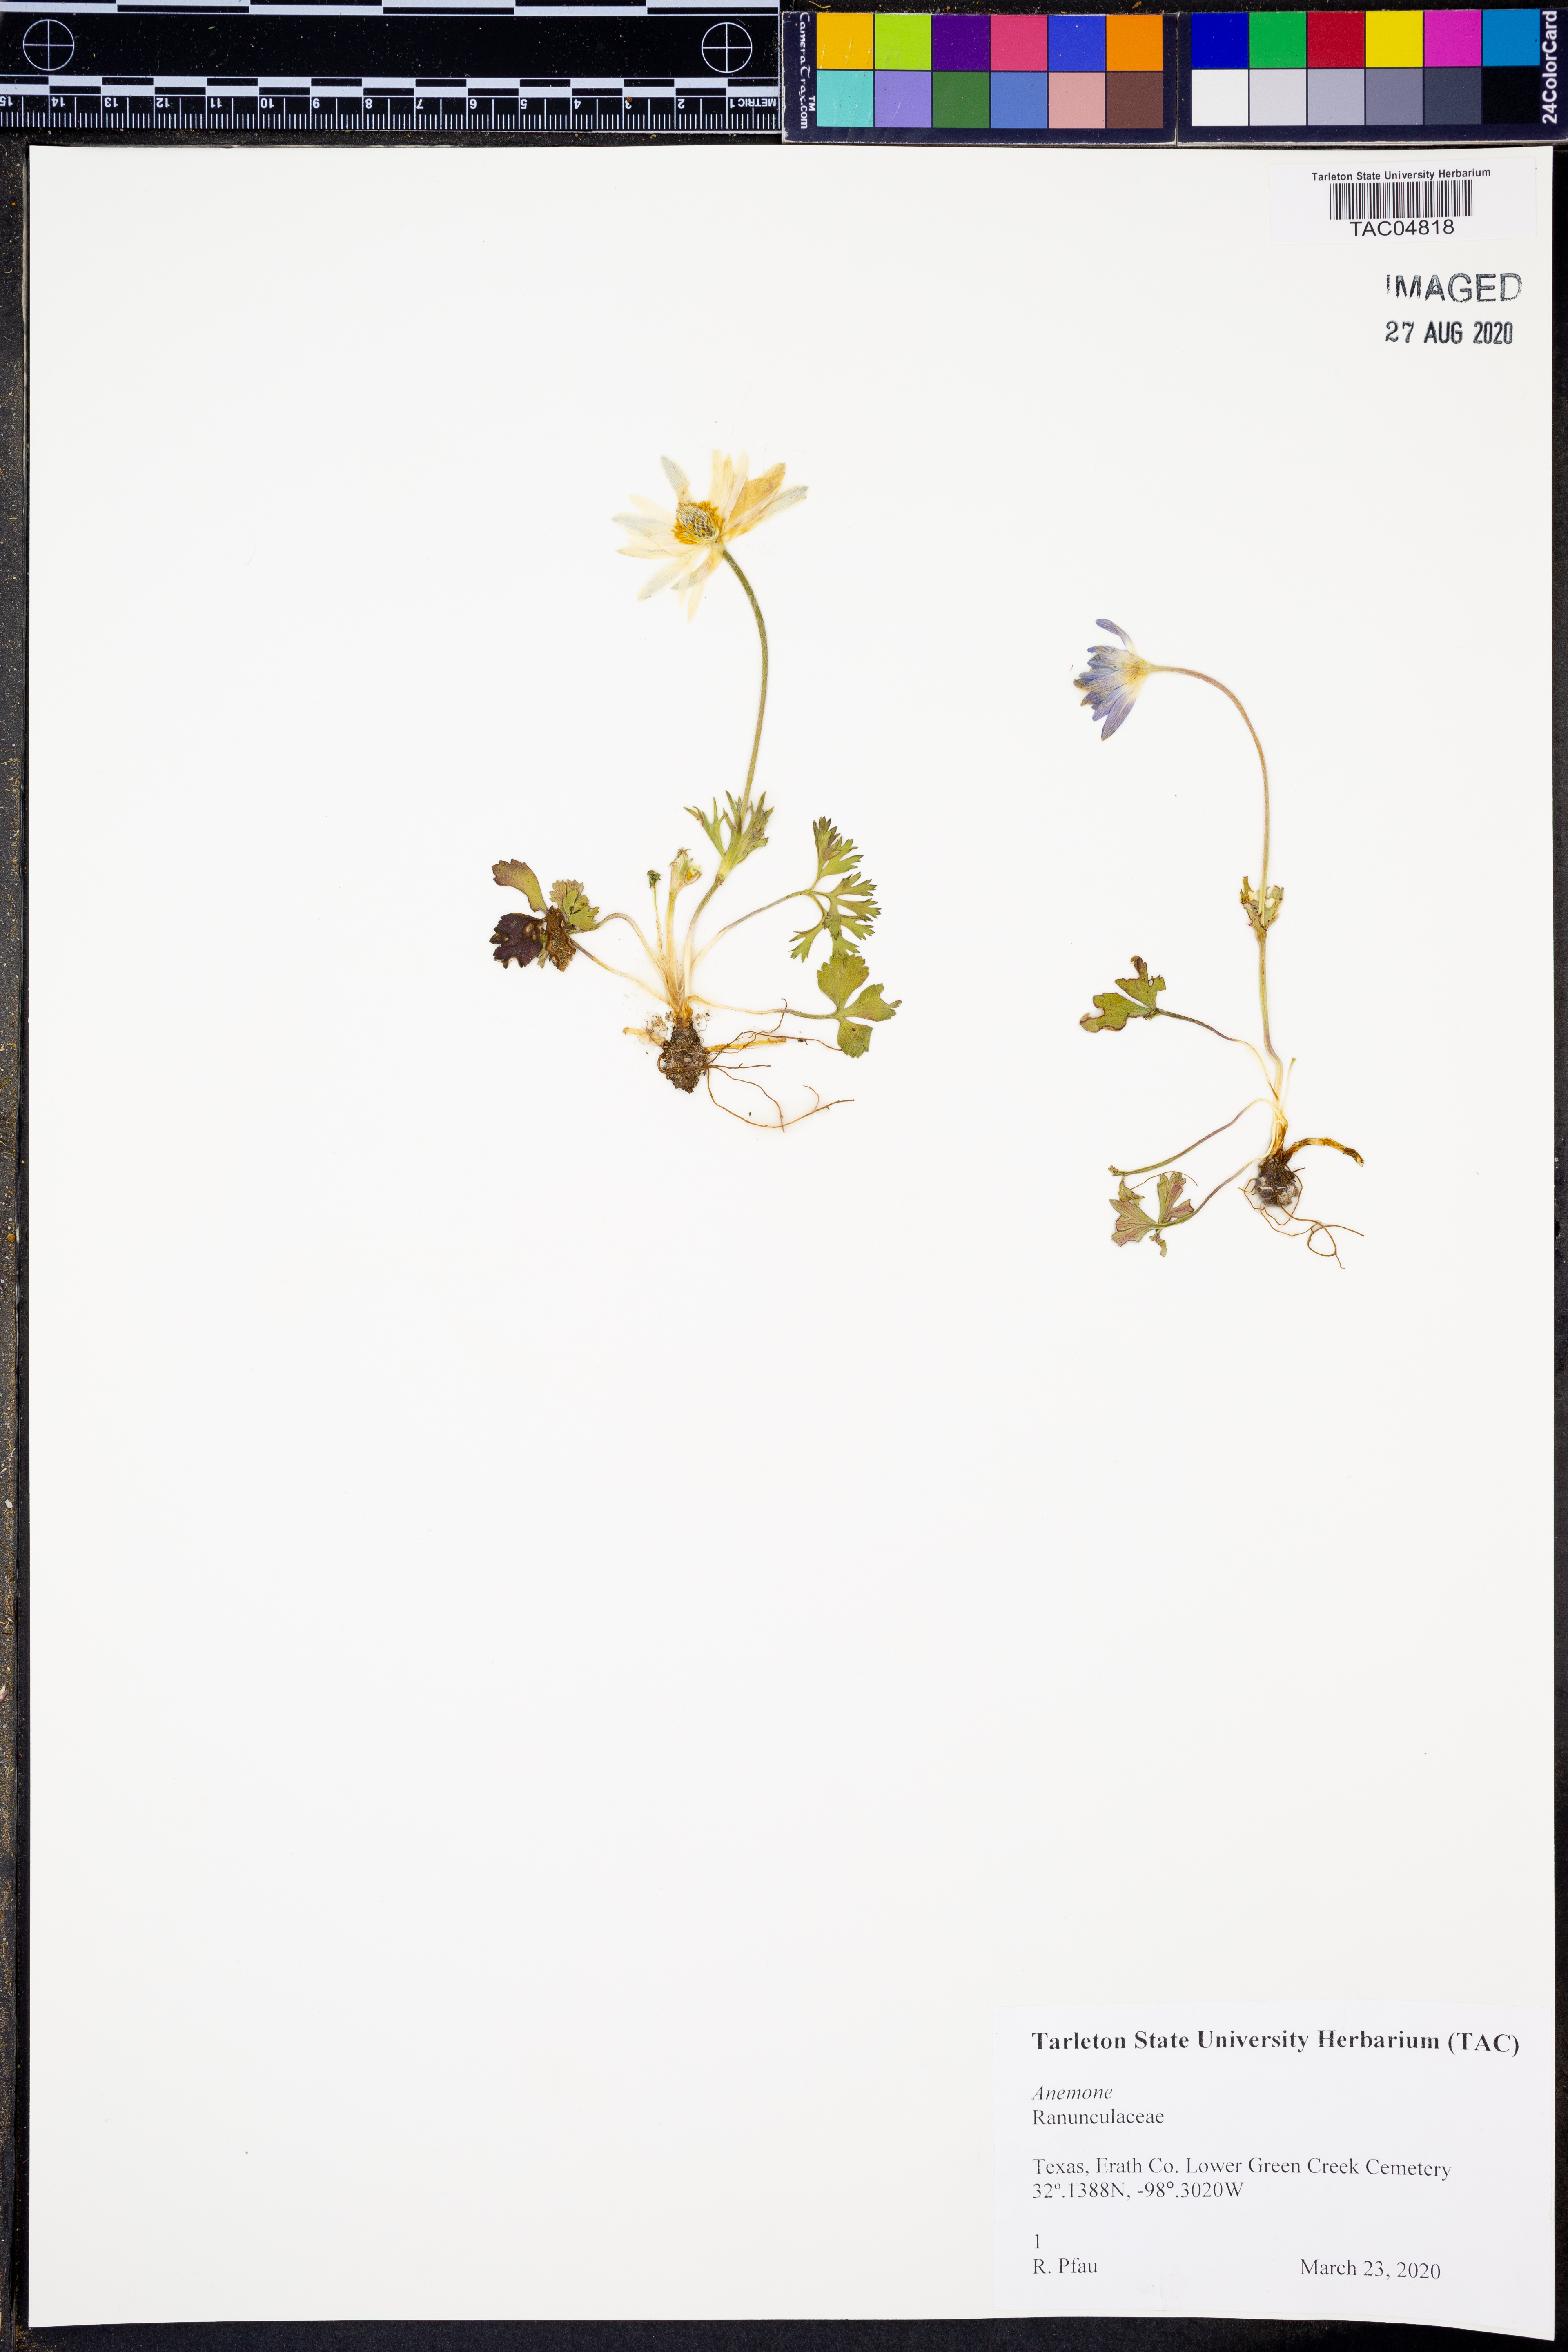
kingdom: Plantae
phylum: Tracheophyta
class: Magnoliopsida
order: Ranunculales
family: Ranunculaceae
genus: Anemone
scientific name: Anemone
